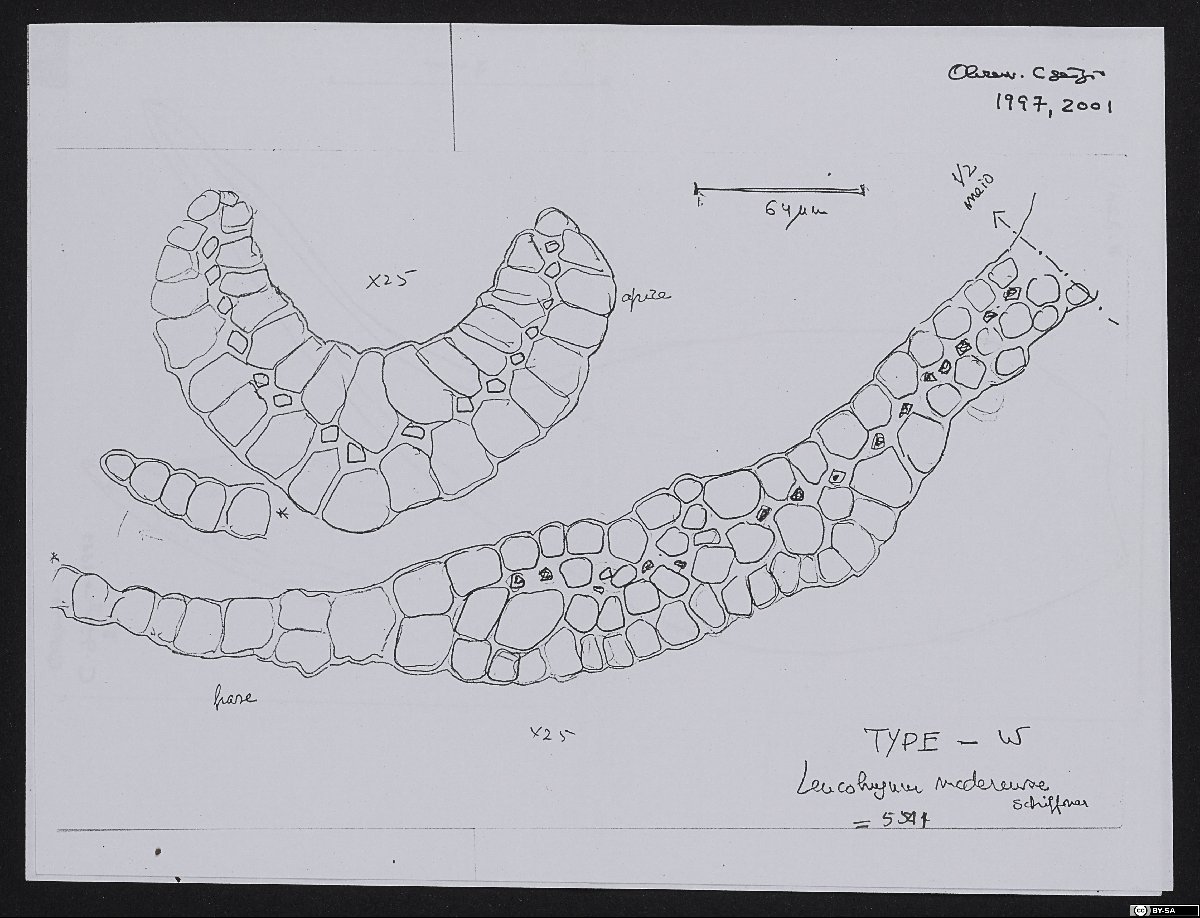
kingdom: Plantae
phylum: Bryophyta
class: Bryopsida
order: Dicranales
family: Leucobryaceae
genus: Leucobryum
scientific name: Leucobryum albidum
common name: White moss
